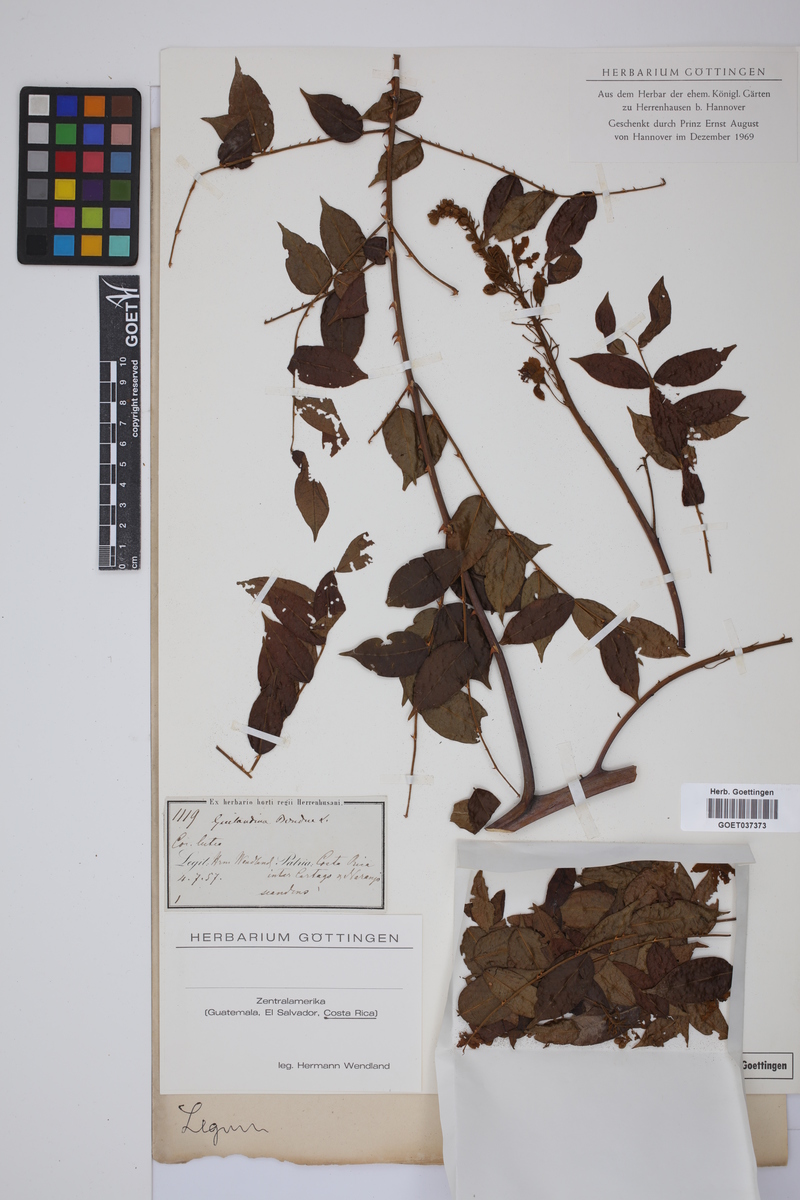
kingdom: Plantae
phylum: Tracheophyta
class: Magnoliopsida
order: Fabales
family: Fabaceae
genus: Guilandina
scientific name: Guilandina bonduc
